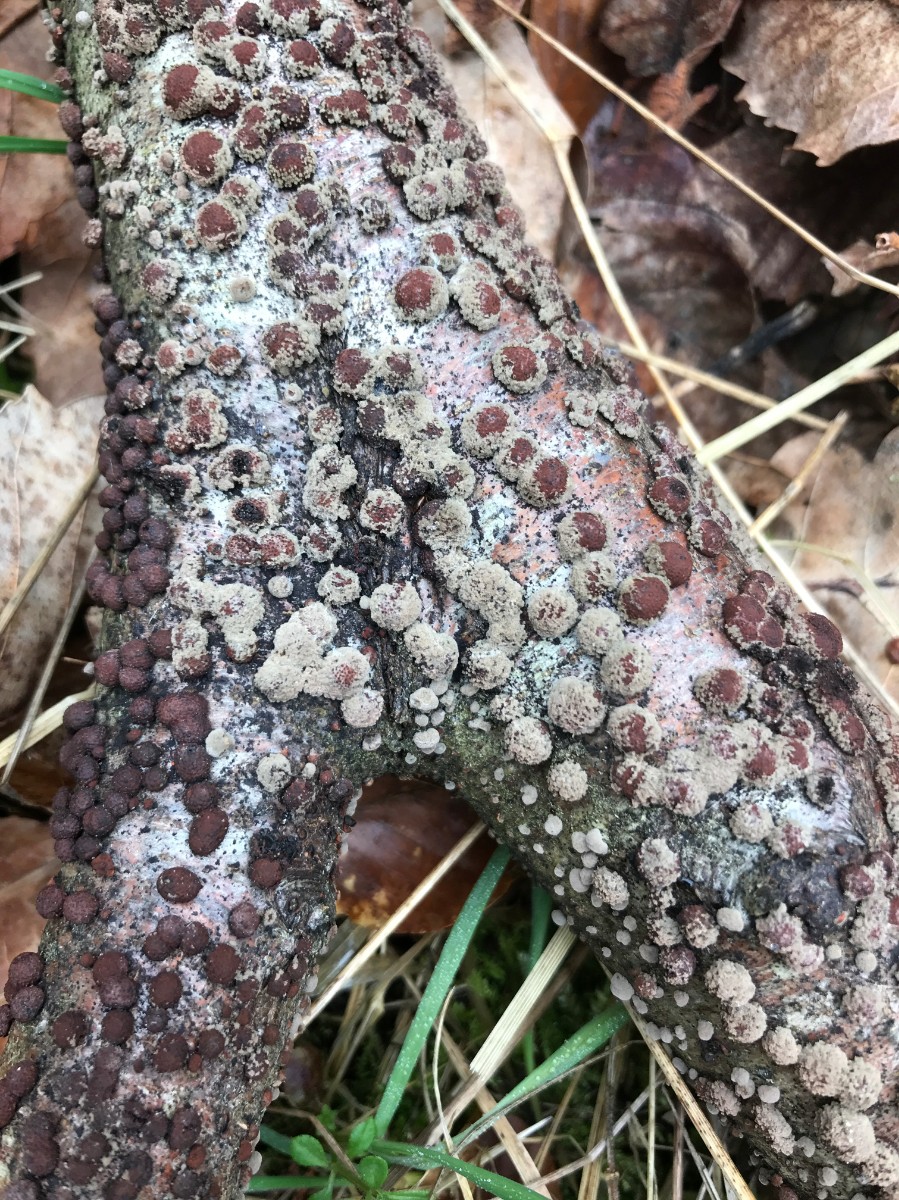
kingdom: Fungi
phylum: Ascomycota
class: Sordariomycetes
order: Xylariales
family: Hypoxylaceae
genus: Hypoxylon
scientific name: Hypoxylon fragiforme
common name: kuljordbær
